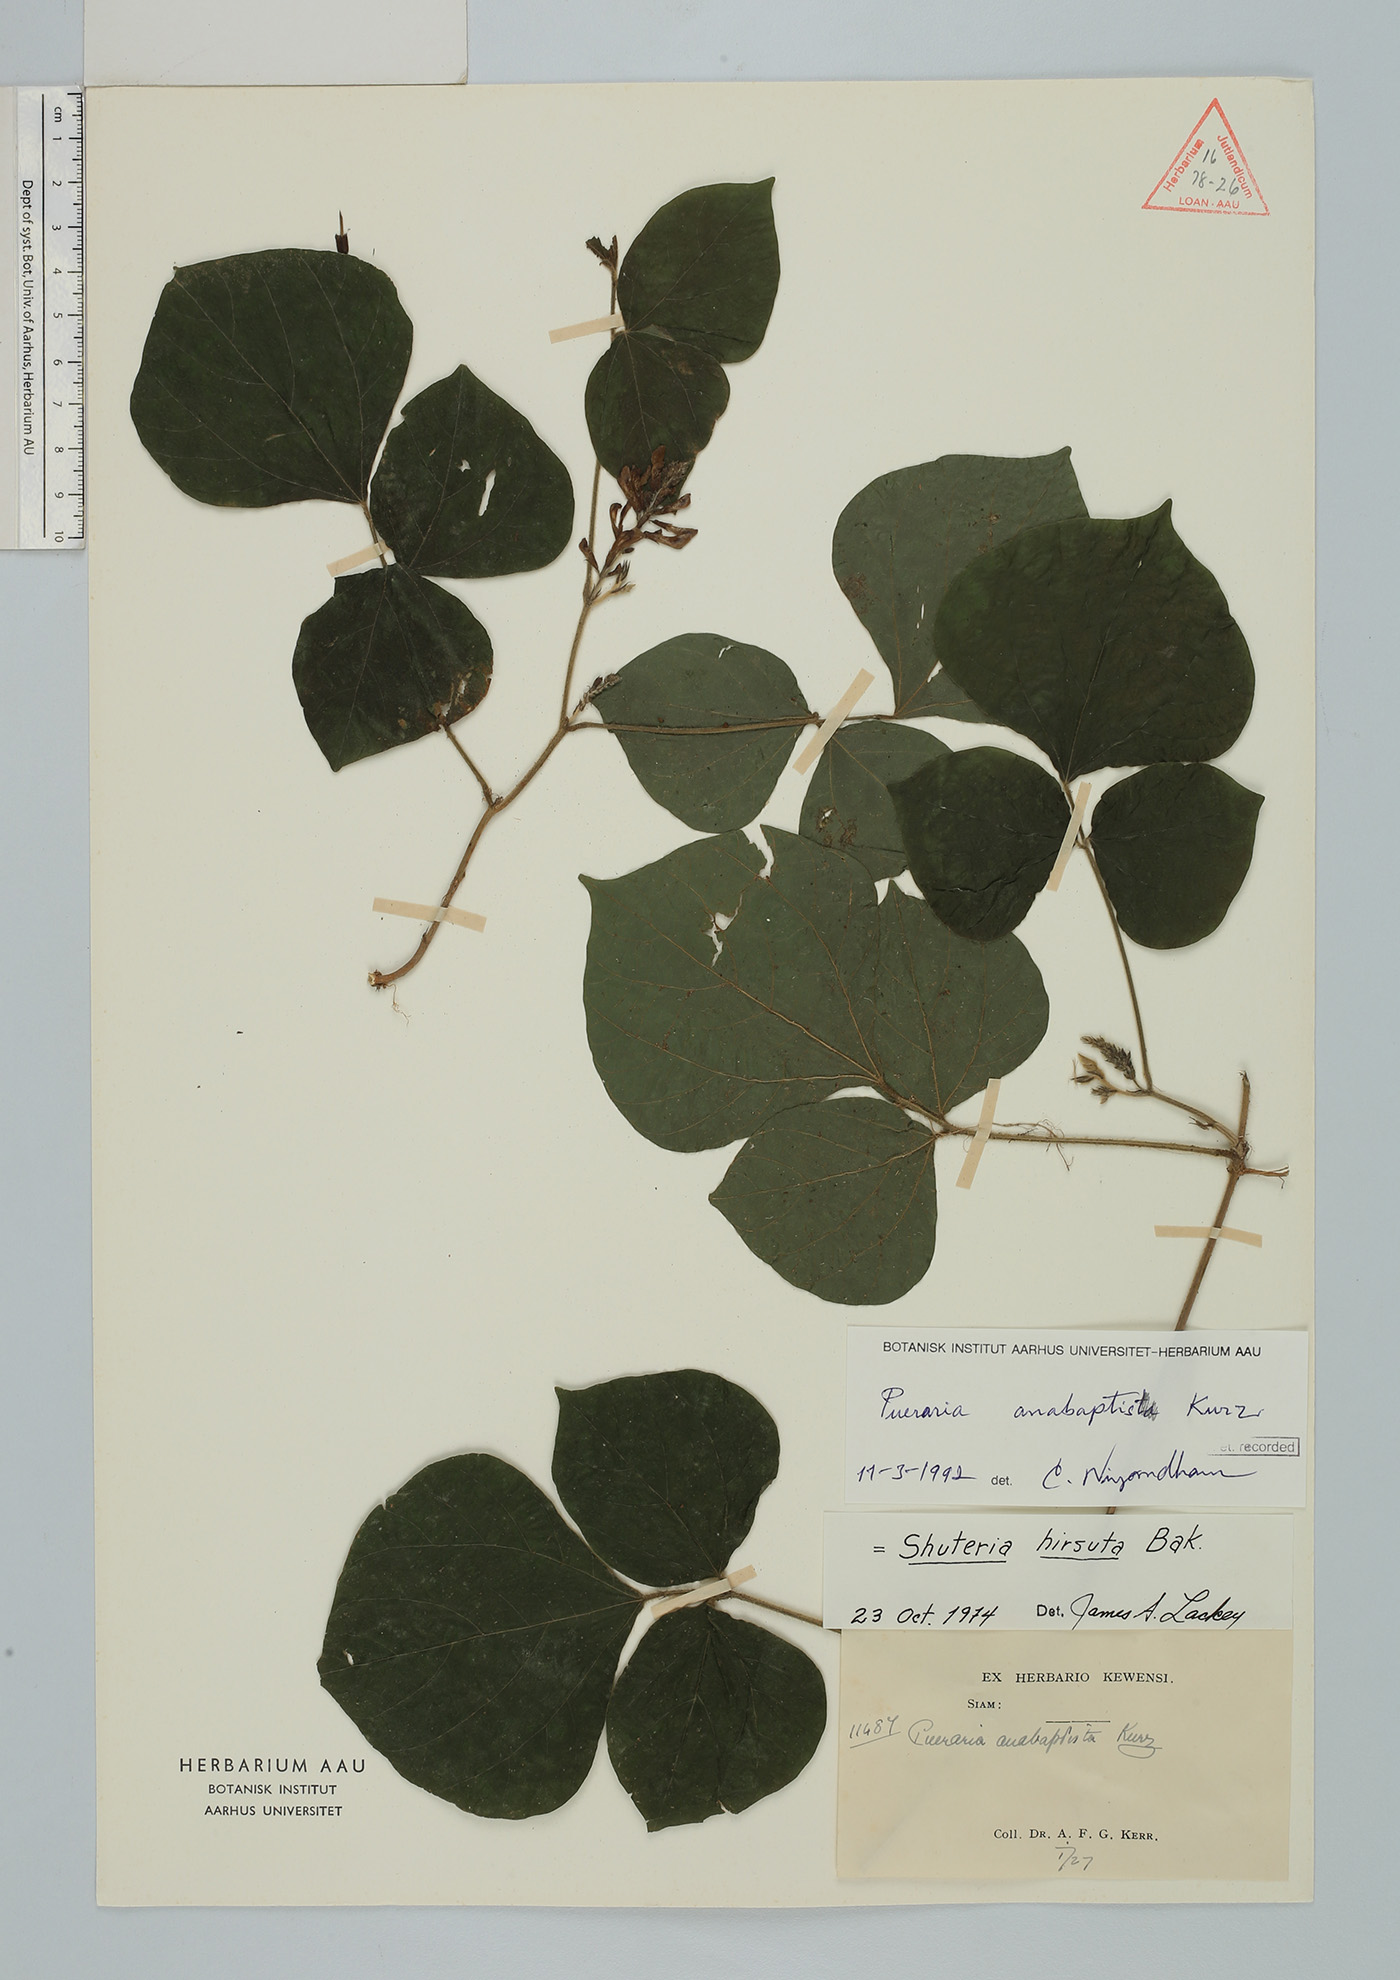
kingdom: Plantae
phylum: Tracheophyta
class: Magnoliopsida
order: Fabales
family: Fabaceae
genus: Harashuteria
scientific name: Harashuteria hirsuta
